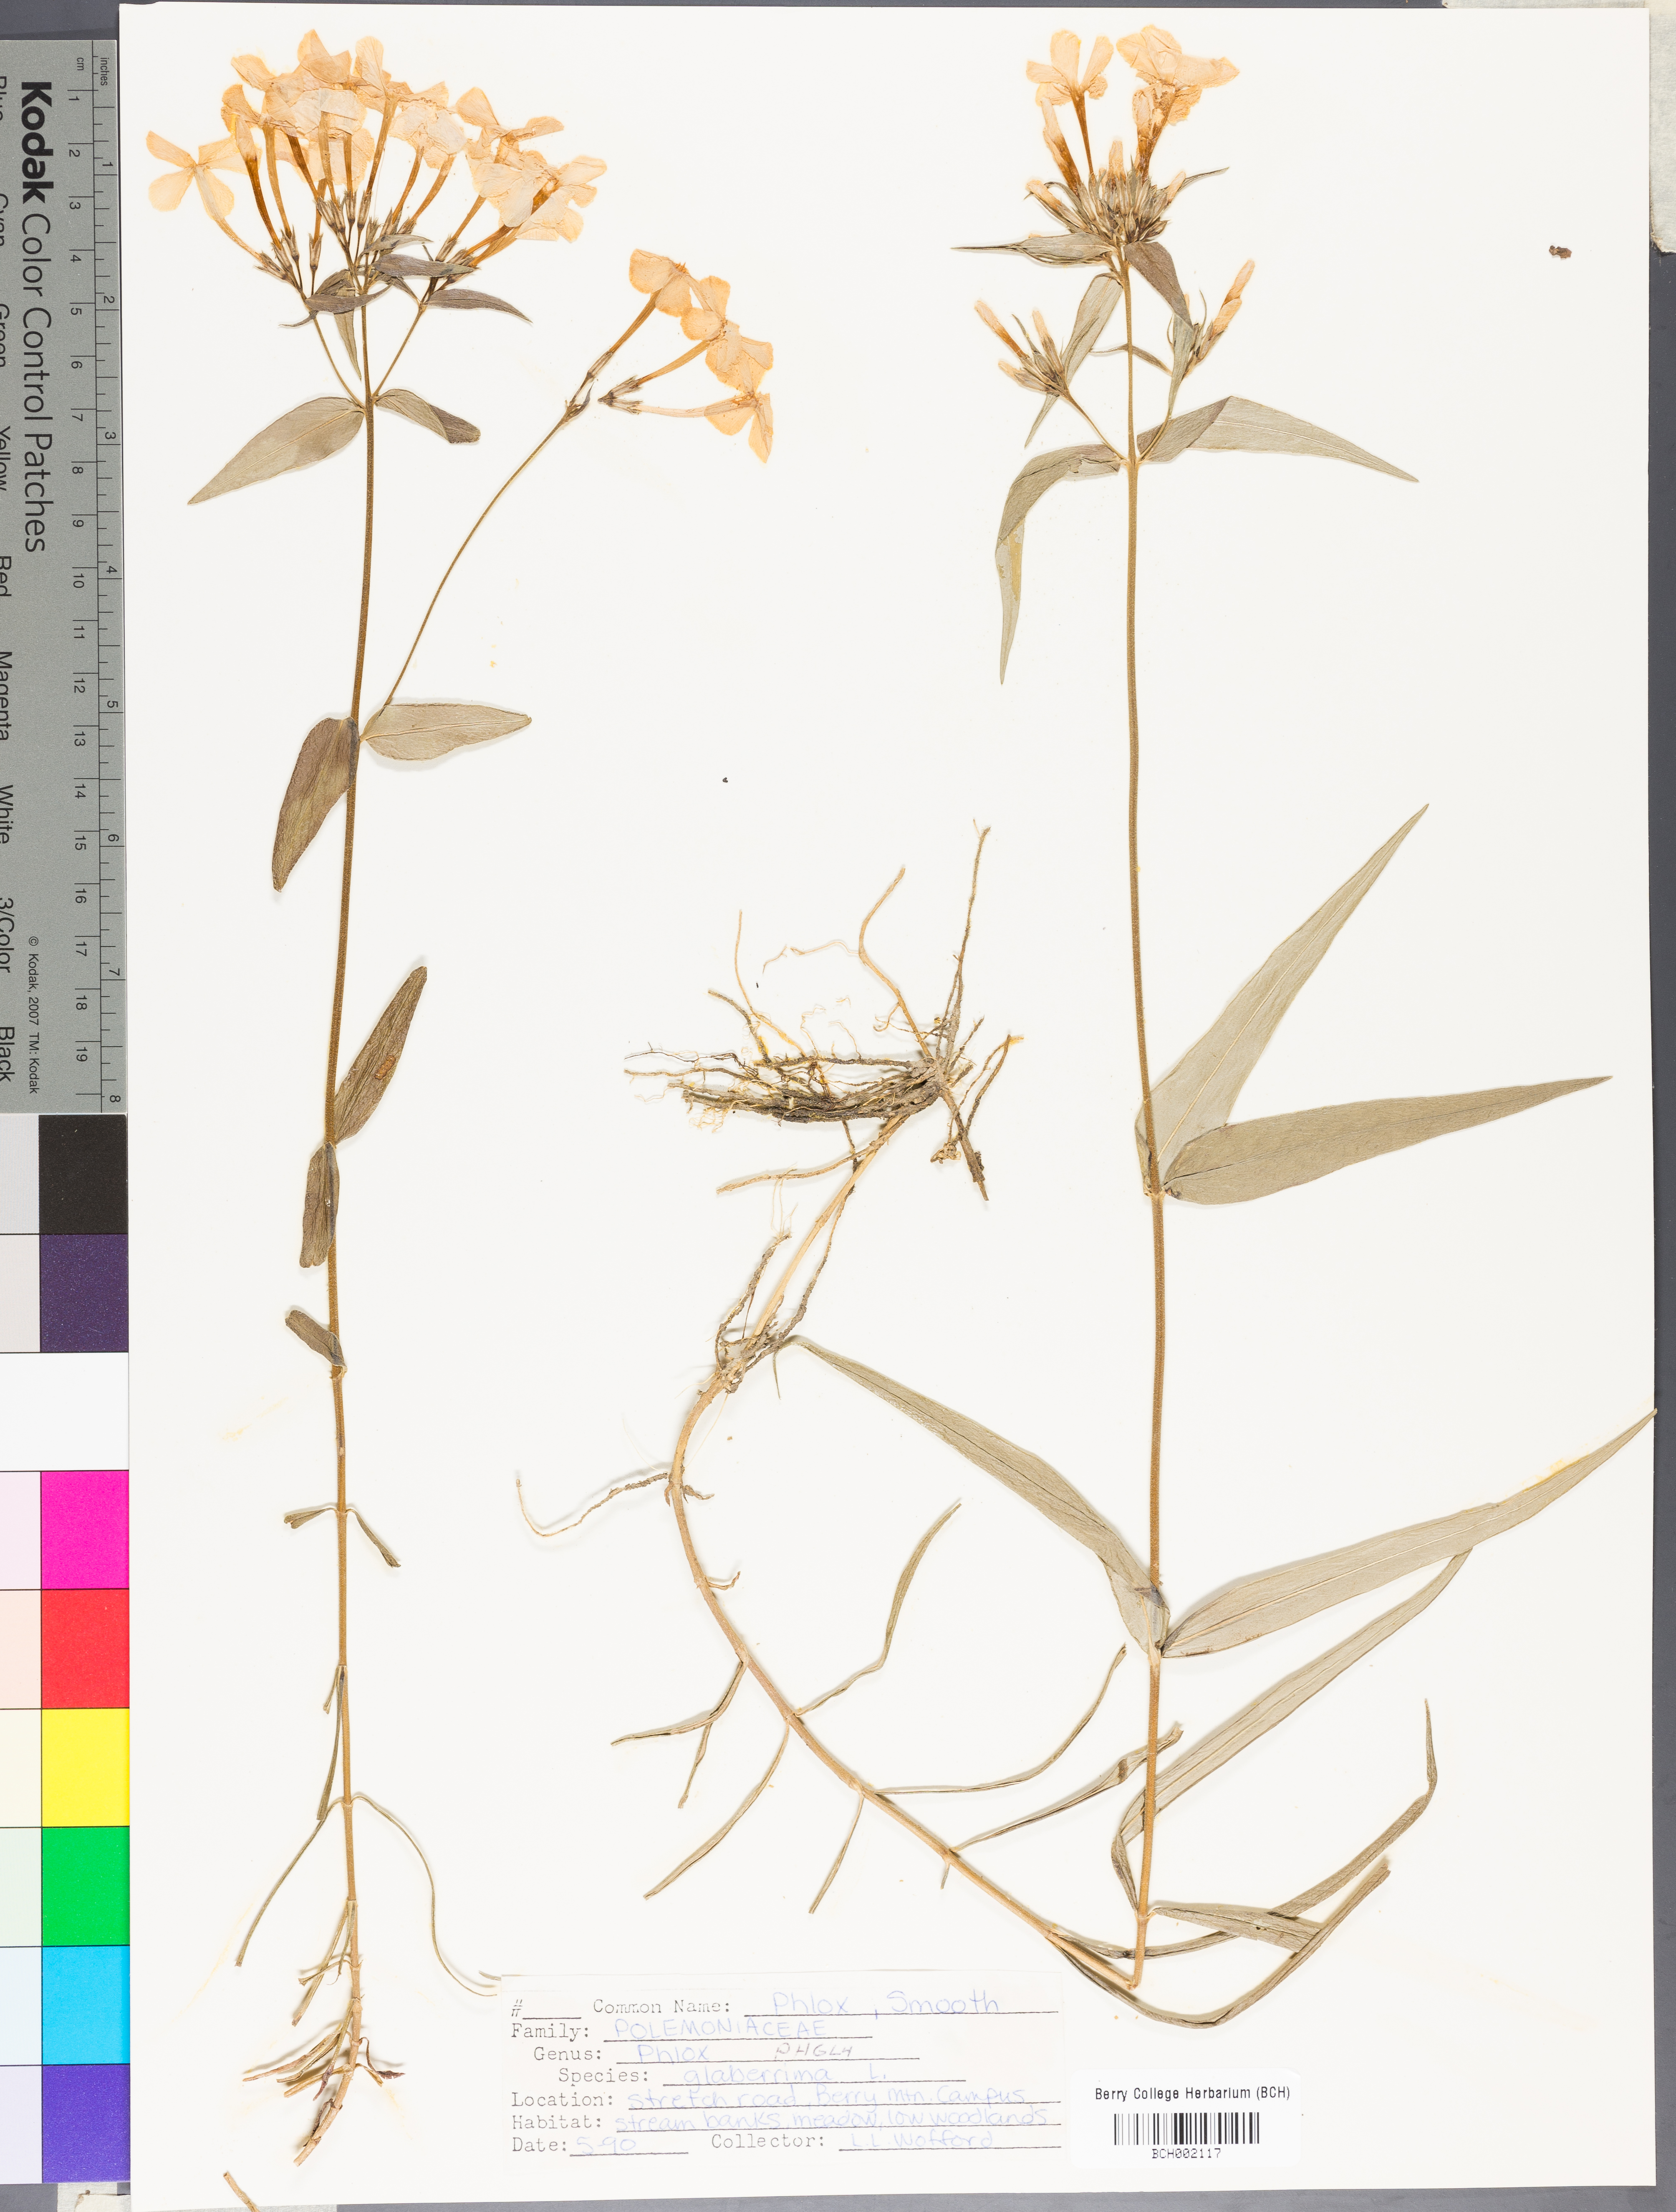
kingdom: Plantae
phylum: Tracheophyta
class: Magnoliopsida
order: Ericales
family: Polemoniaceae
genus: Phlox
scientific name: Phlox glaberrima
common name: Smooth phlox
